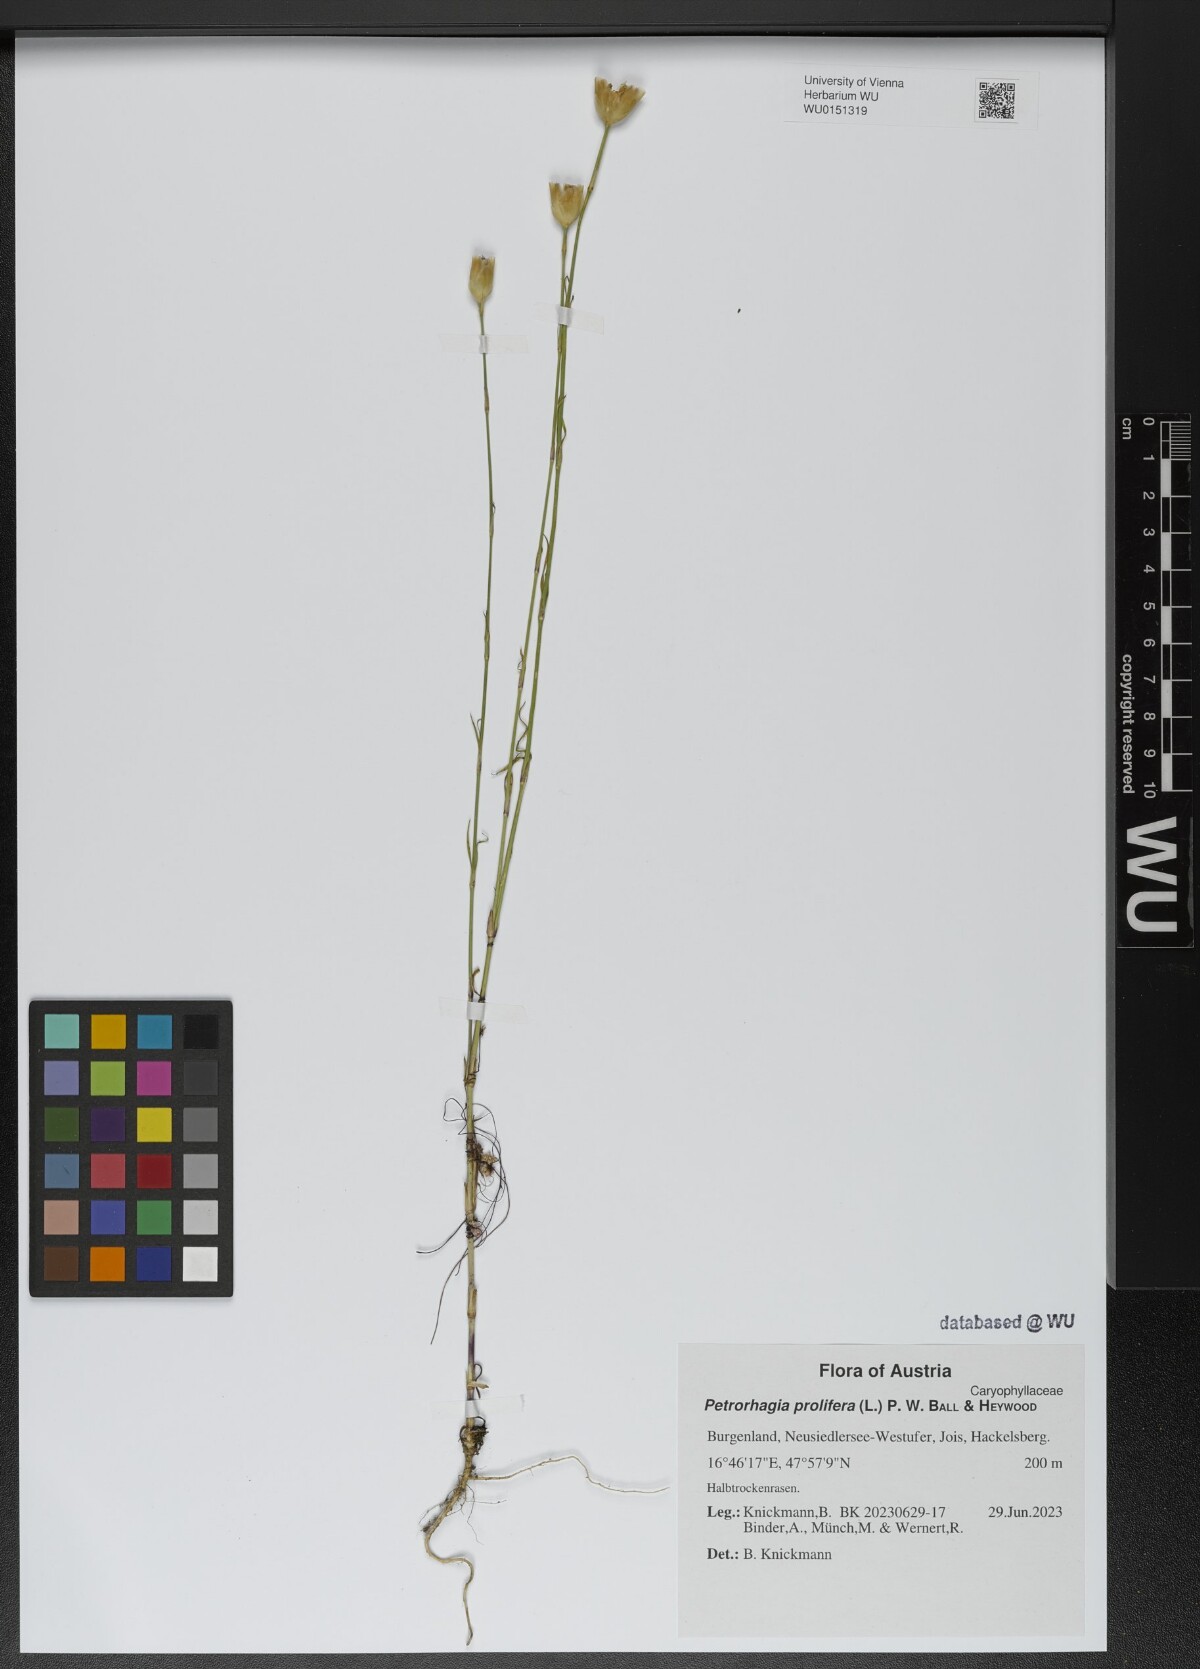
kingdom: Plantae
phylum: Tracheophyta
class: Magnoliopsida
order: Caryophyllales
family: Caryophyllaceae
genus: Petrorhagia
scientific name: Petrorhagia prolifera
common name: Proliferous pink
